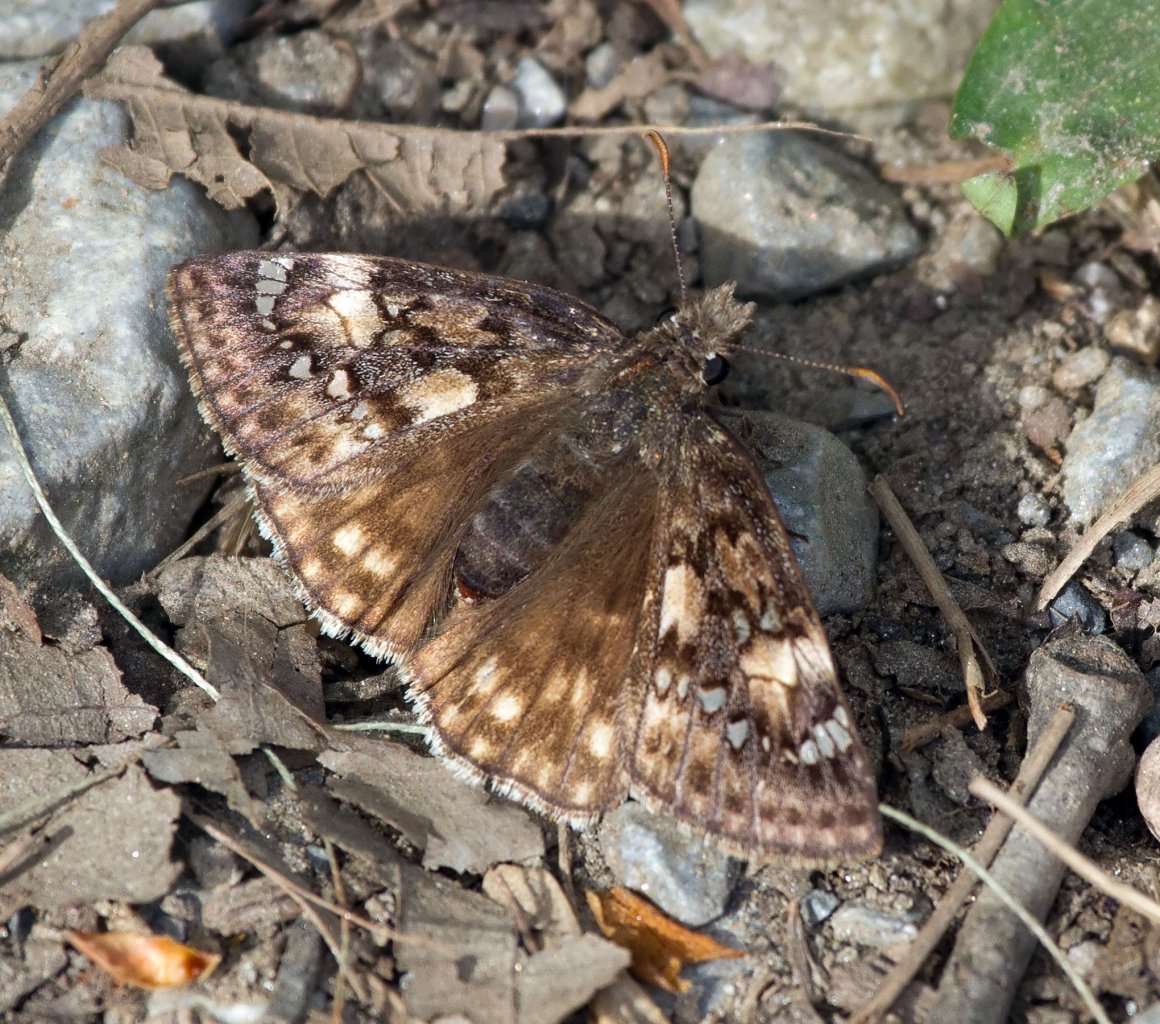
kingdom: Animalia
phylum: Arthropoda
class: Insecta
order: Lepidoptera
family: Hesperiidae
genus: Gesta
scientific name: Gesta
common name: Horace's Duskywing
